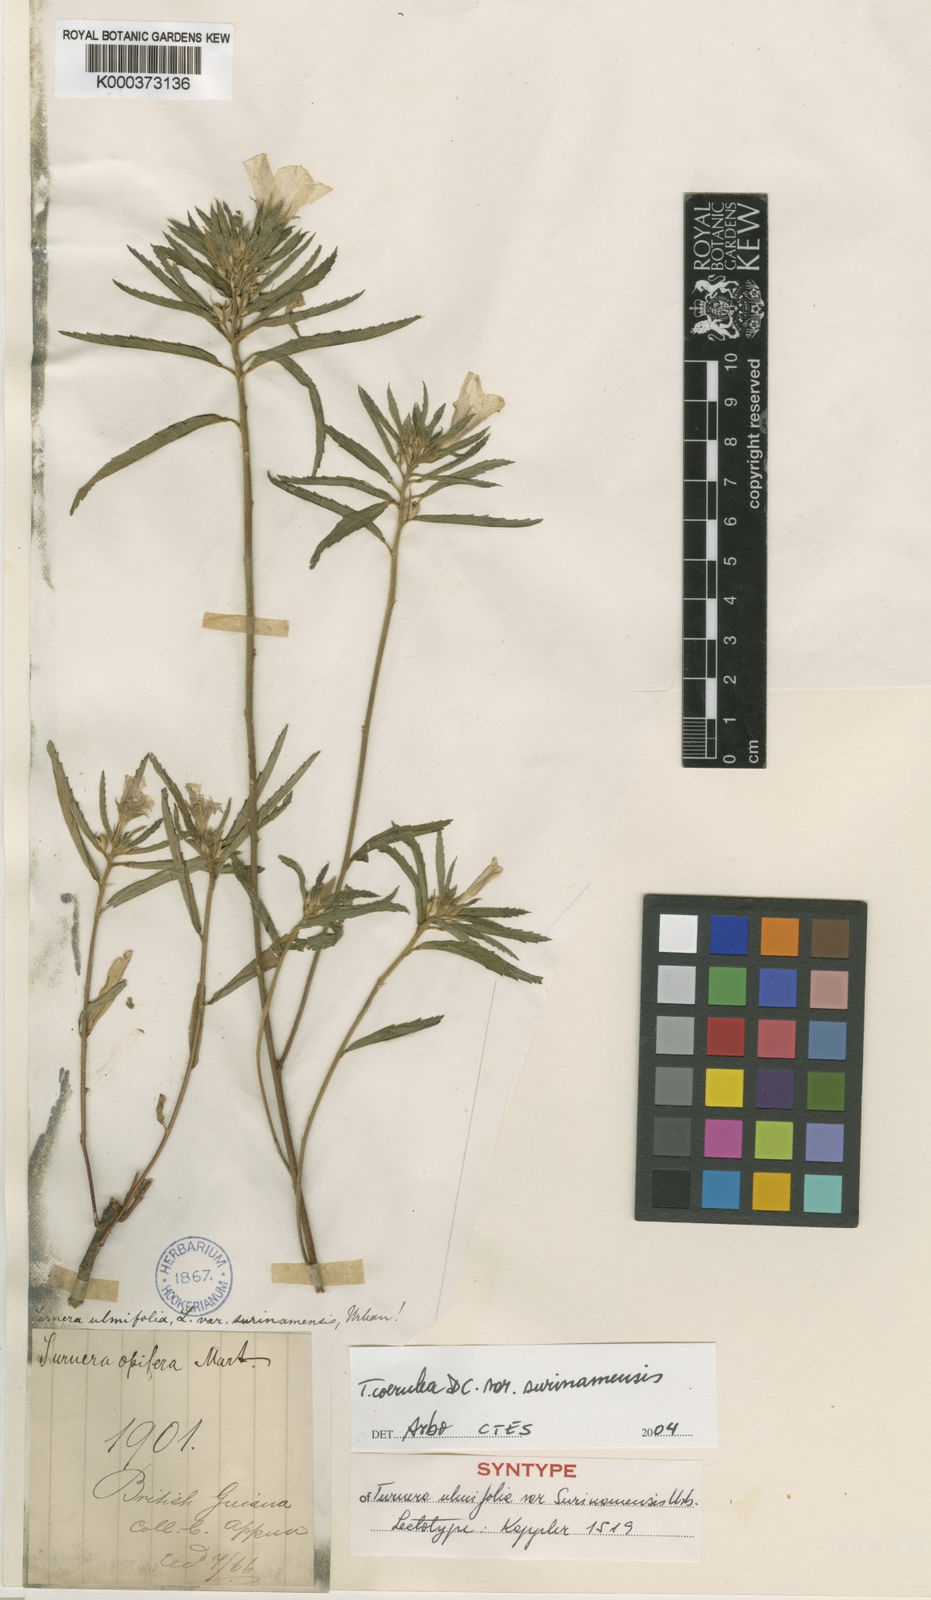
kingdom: Plantae
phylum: Tracheophyta
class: Magnoliopsida
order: Malpighiales
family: Turneraceae
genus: Turnera
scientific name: Turnera coerulea
